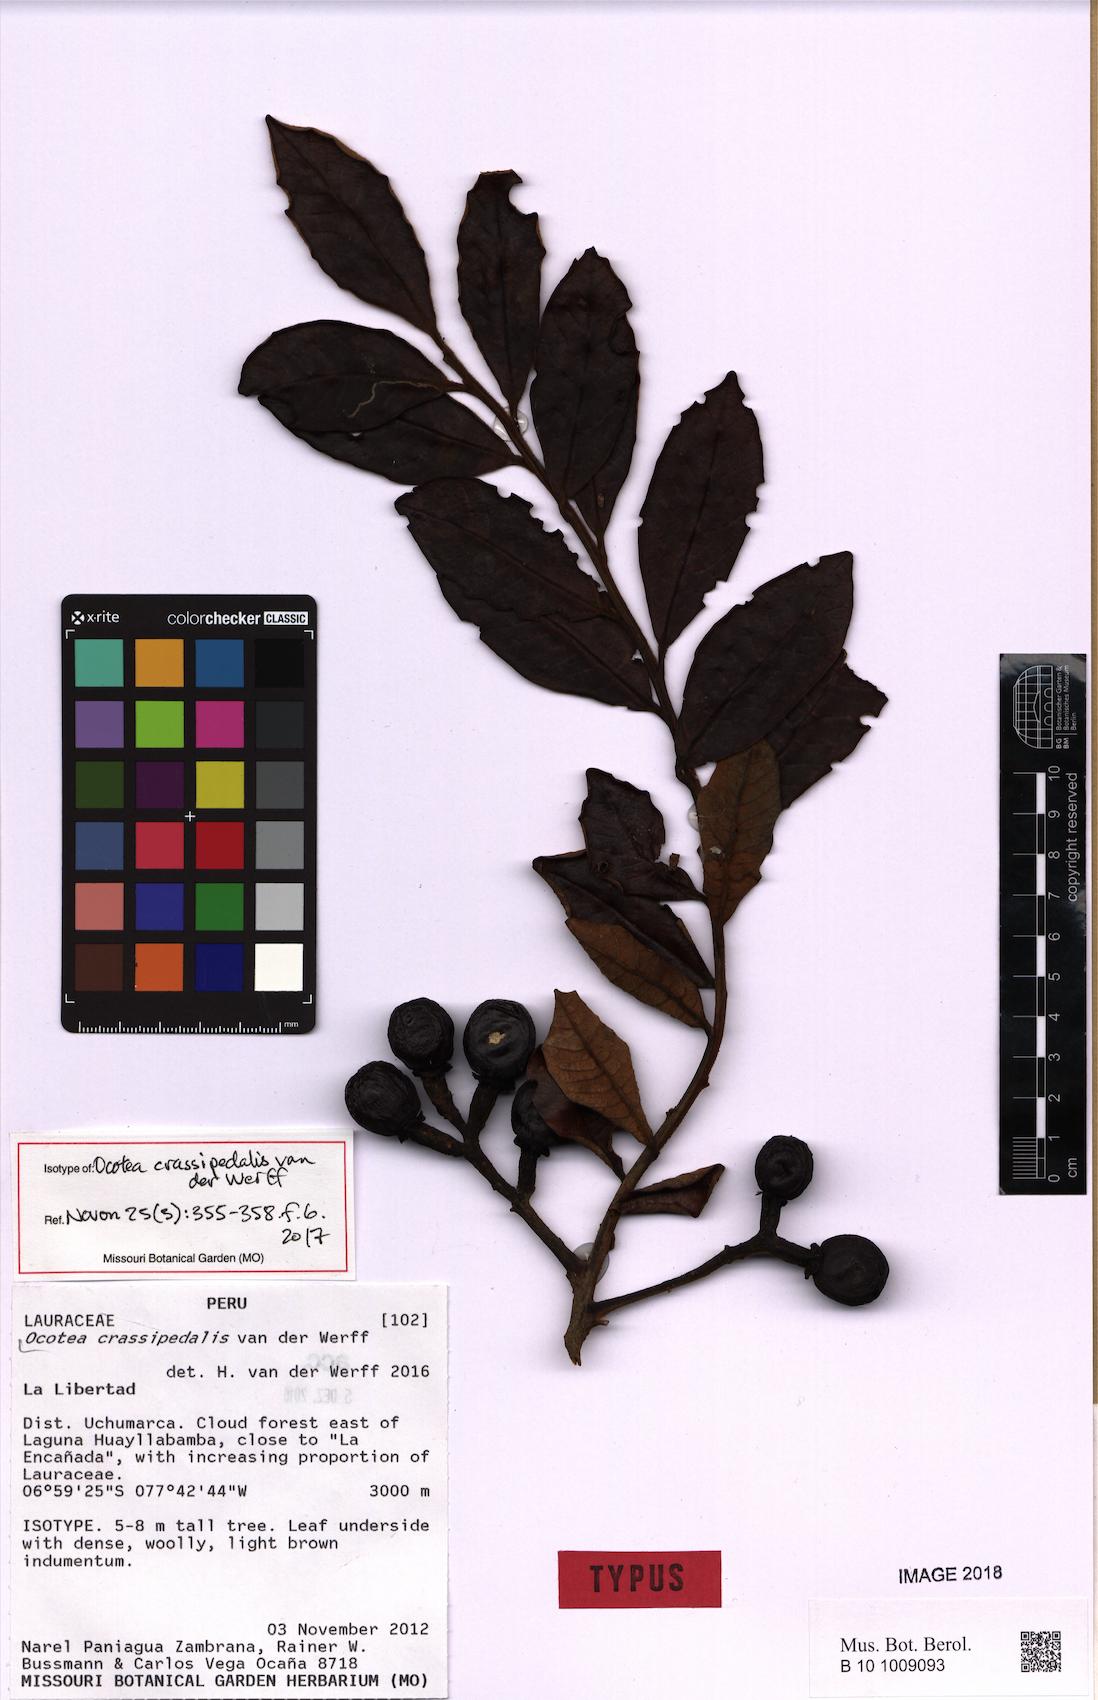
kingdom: Plantae
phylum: Tracheophyta
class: Magnoliopsida
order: Laurales
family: Lauraceae
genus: Ocotea
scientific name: Ocotea crassipedalis
